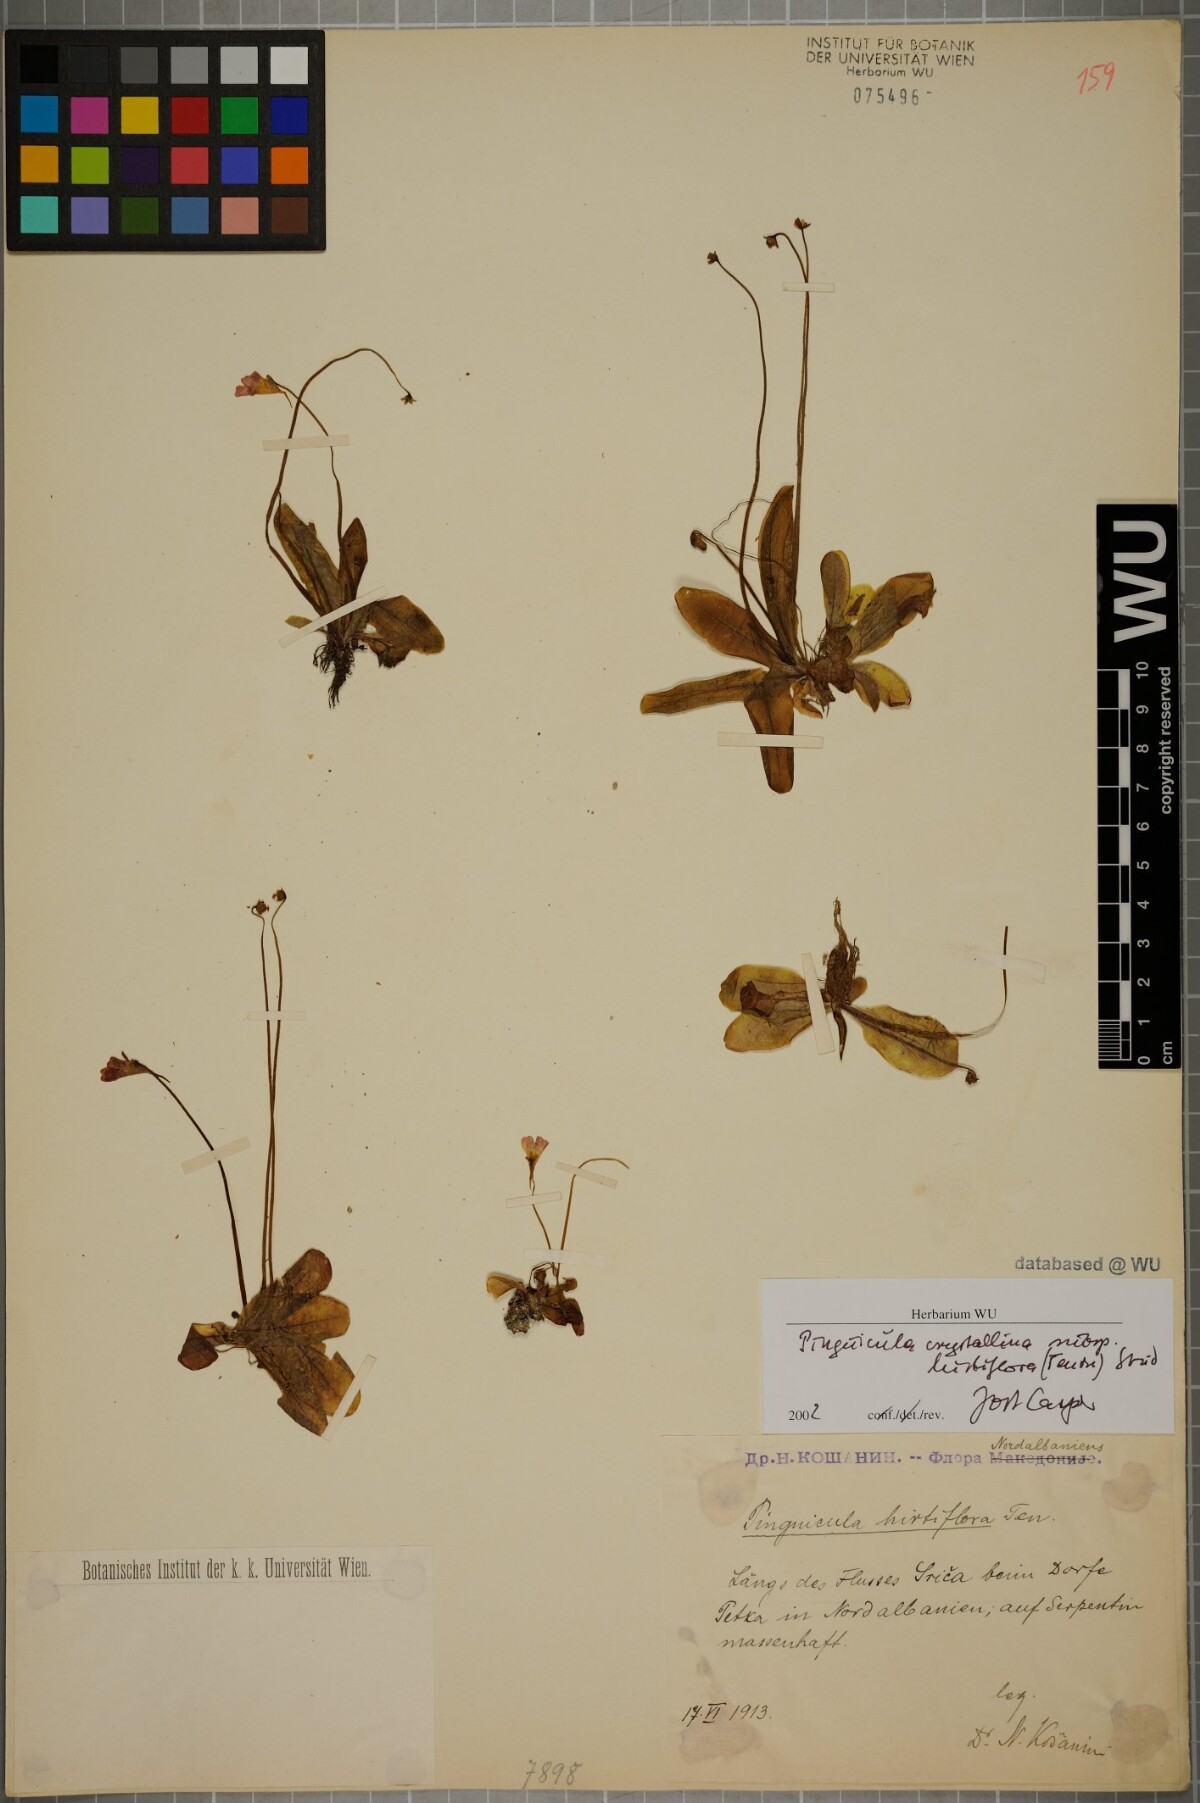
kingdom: Plantae
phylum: Tracheophyta
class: Magnoliopsida
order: Lamiales
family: Lentibulariaceae
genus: Pinguicula
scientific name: Pinguicula crystallina
